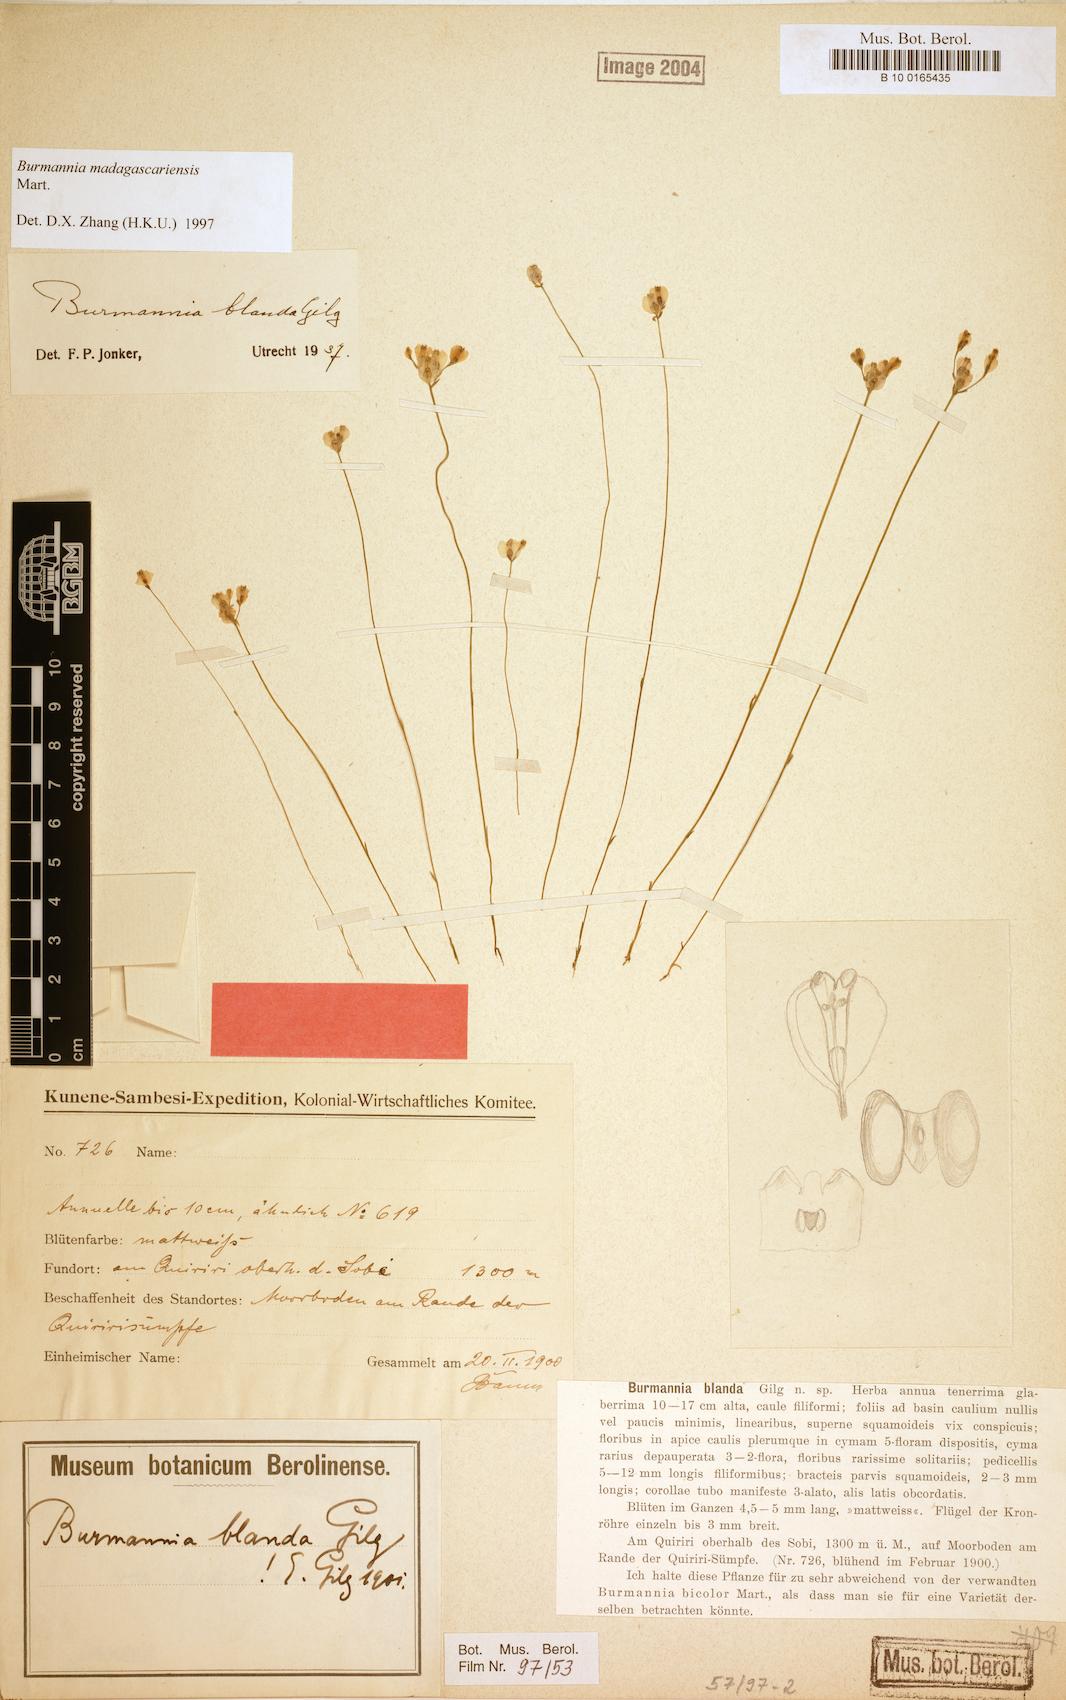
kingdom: Plantae
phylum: Tracheophyta
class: Liliopsida
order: Dioscoreales
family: Burmanniaceae
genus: Burmannia
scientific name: Burmannia madagascariensis
